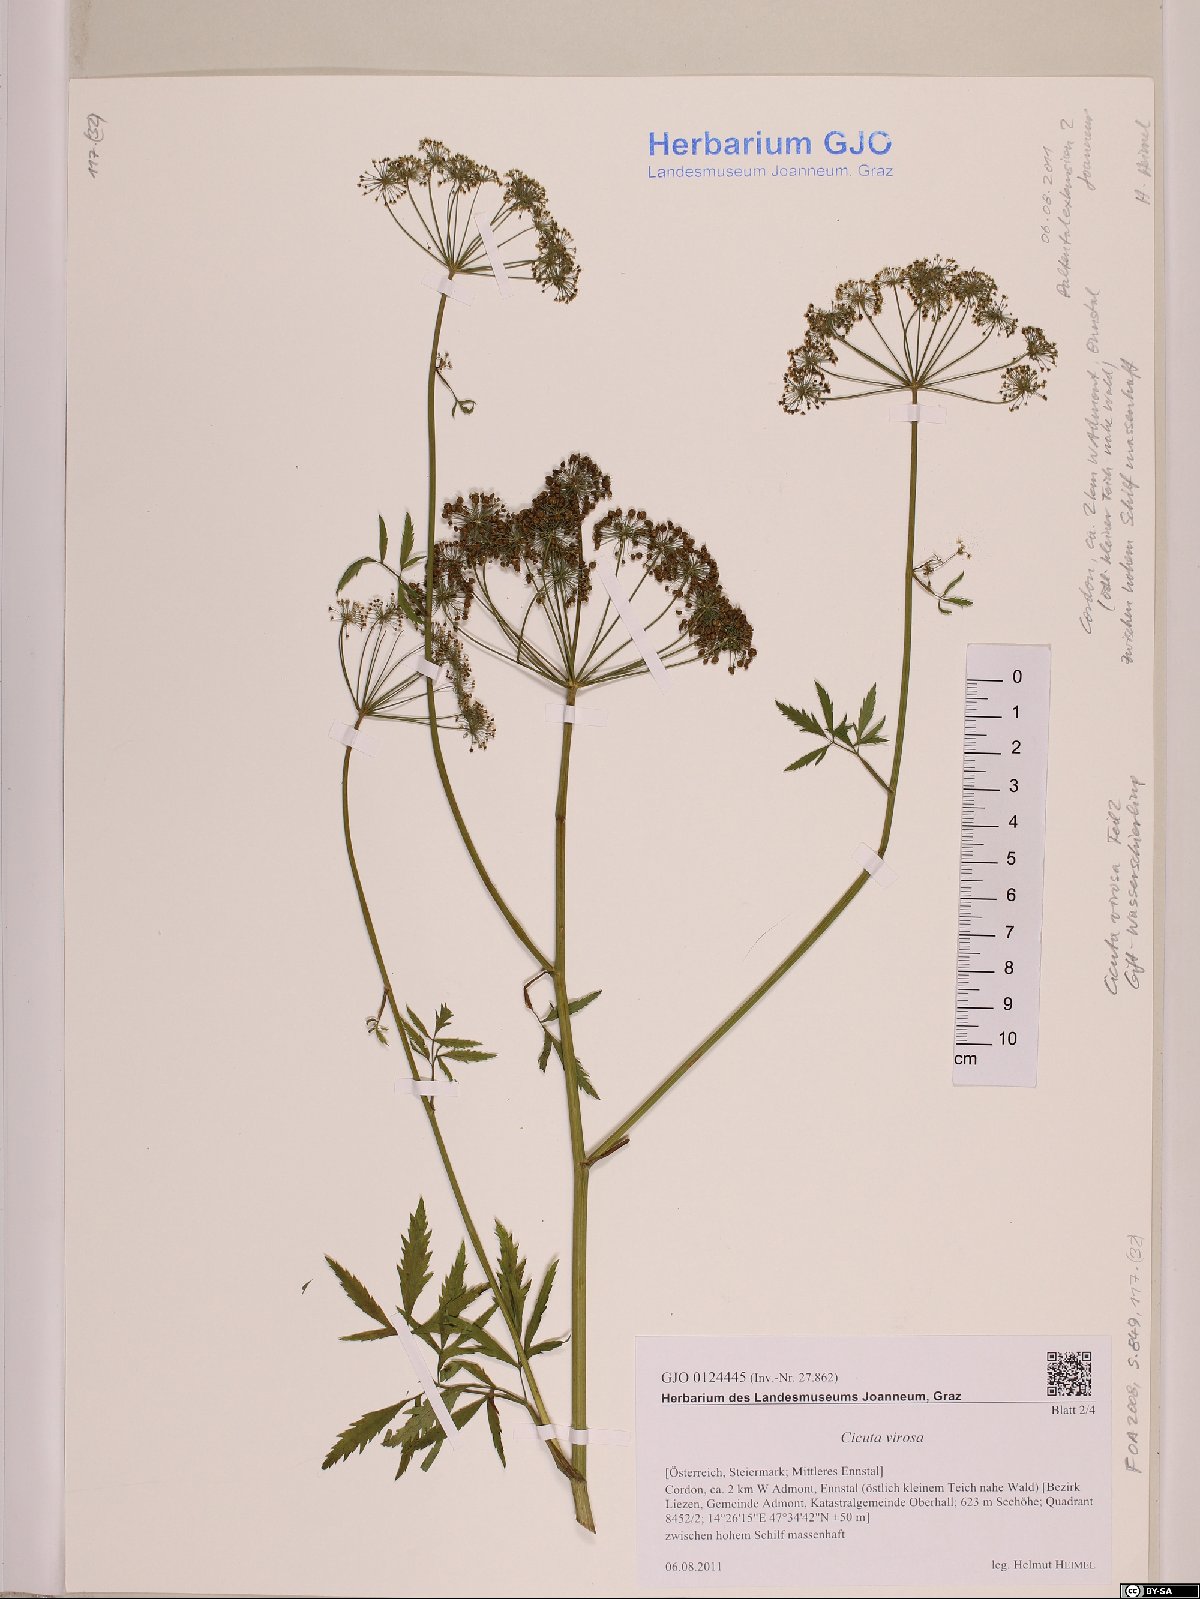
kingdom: Plantae
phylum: Tracheophyta
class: Magnoliopsida
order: Apiales
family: Apiaceae
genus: Cicuta
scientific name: Cicuta virosa
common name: Cowbane
